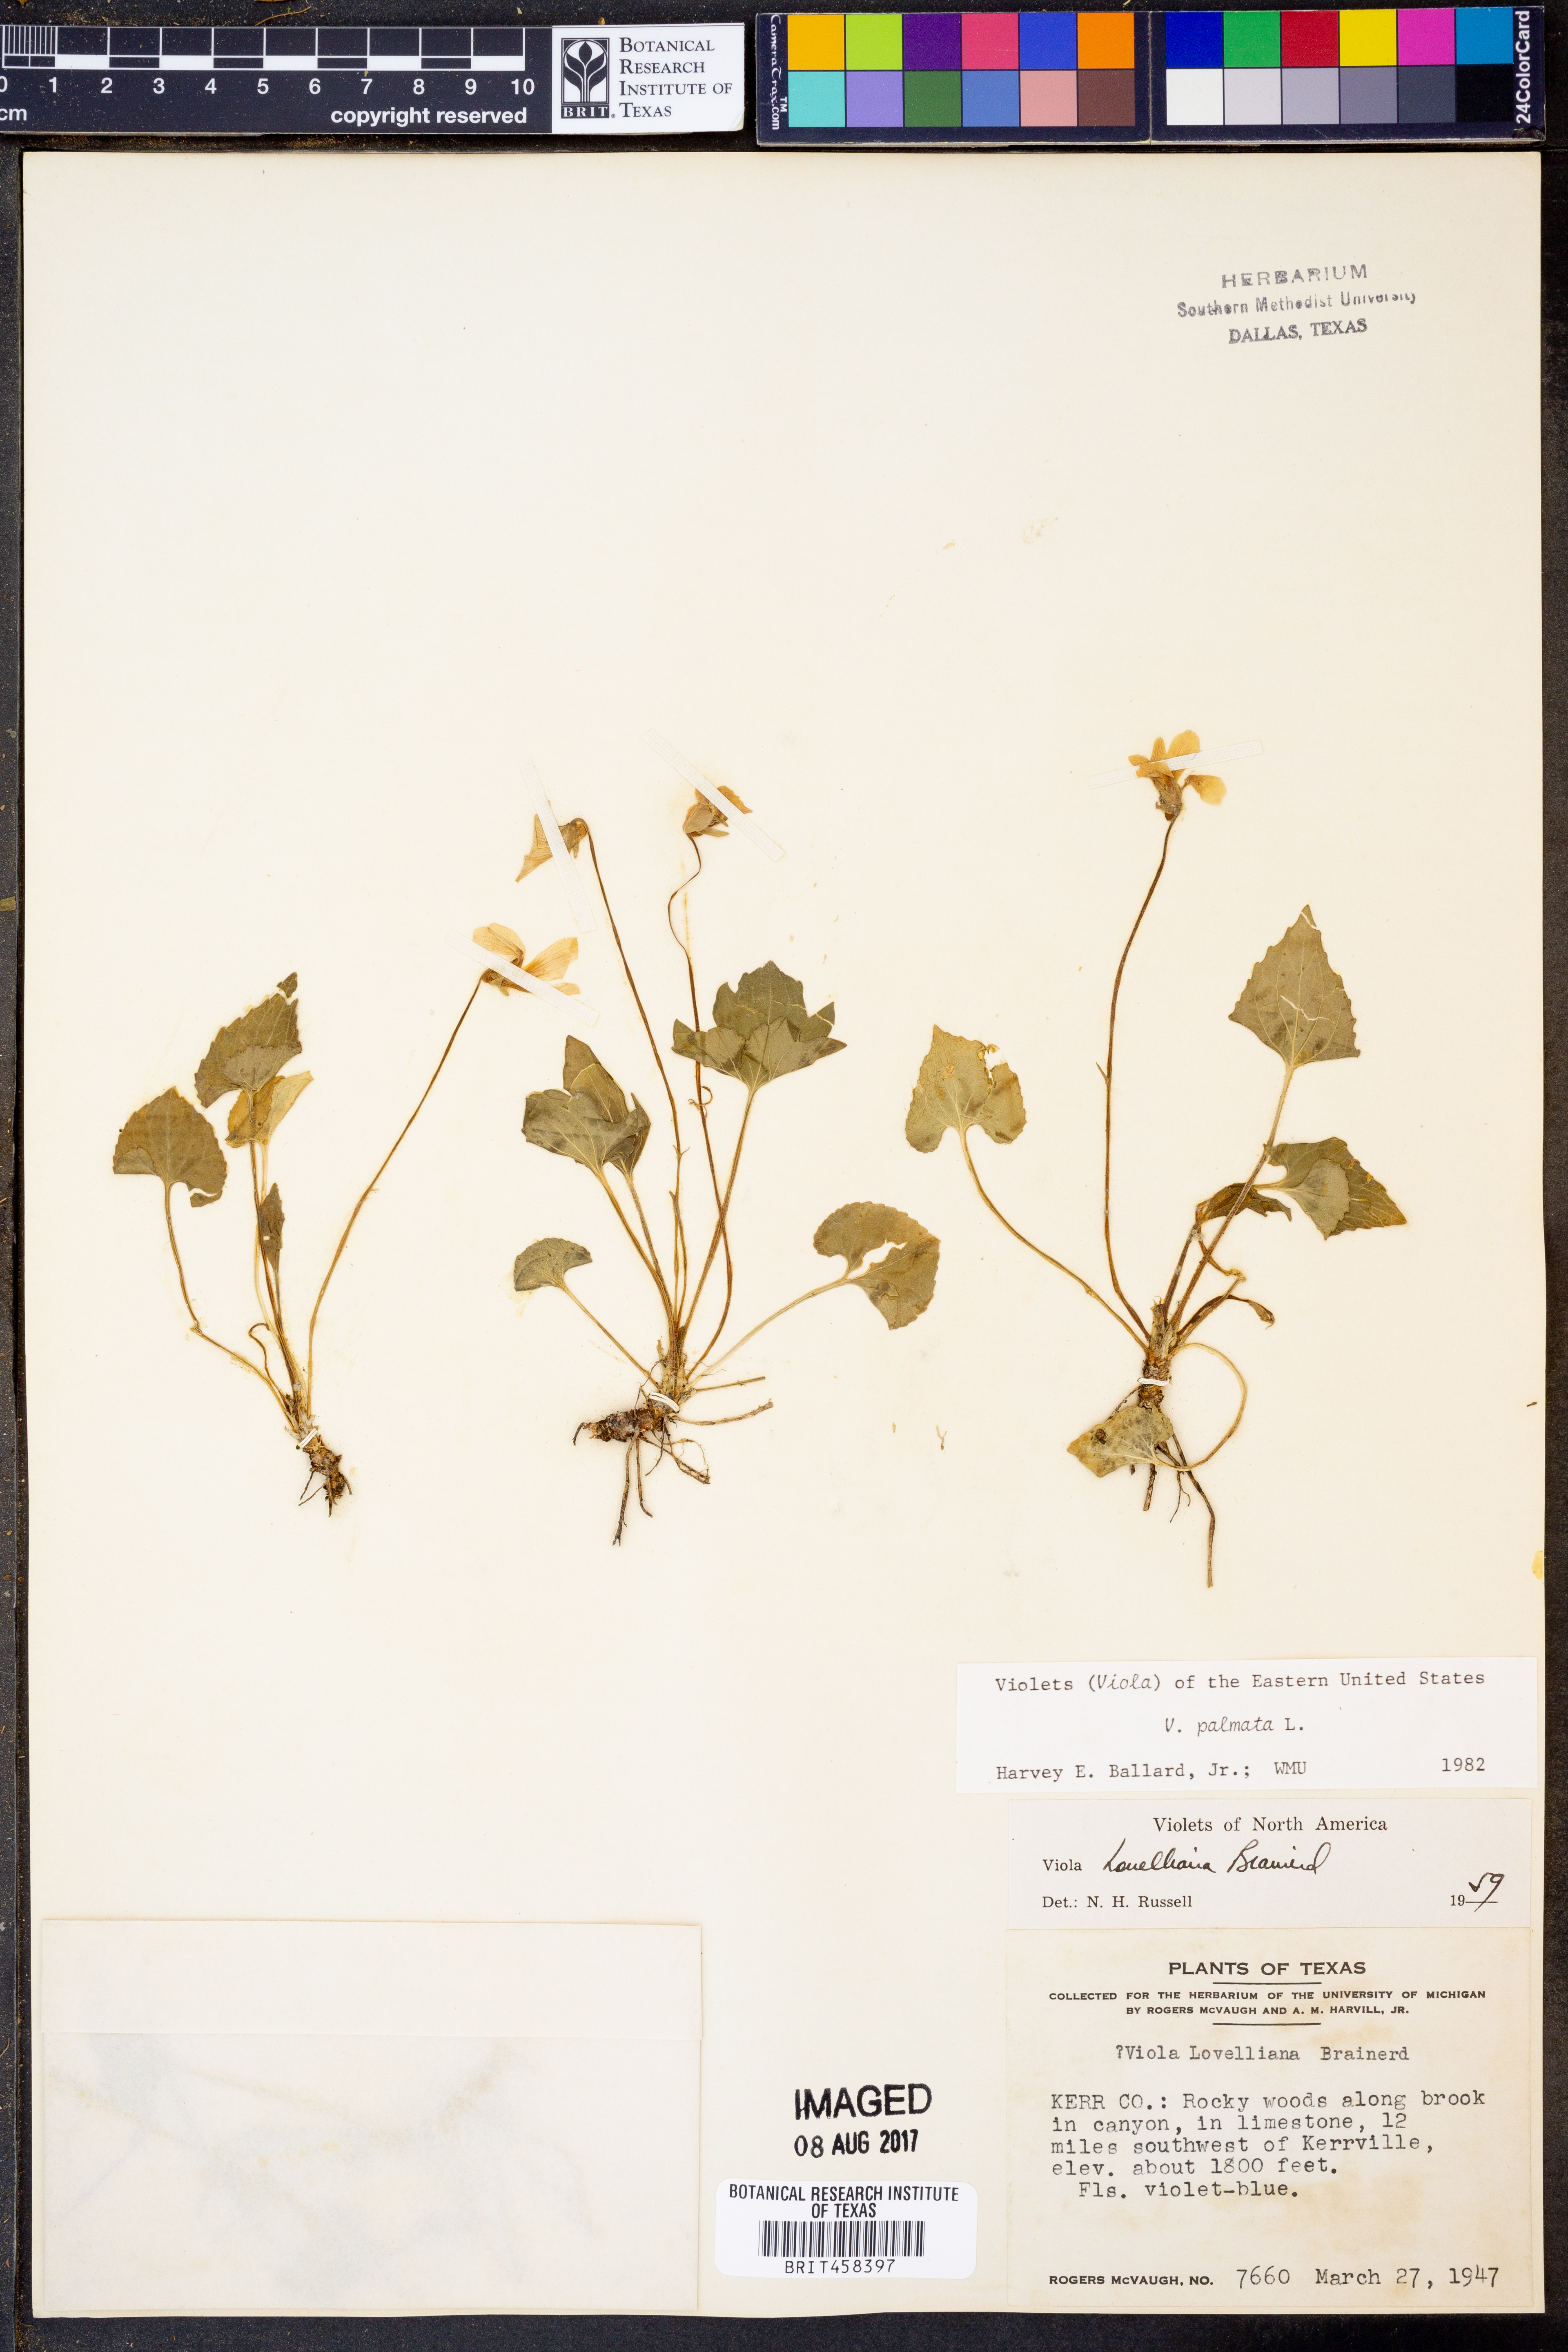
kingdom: Plantae
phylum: Tracheophyta
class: Magnoliopsida
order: Malpighiales
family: Violaceae
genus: Viola
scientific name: Viola palmata
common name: Early blue violet
